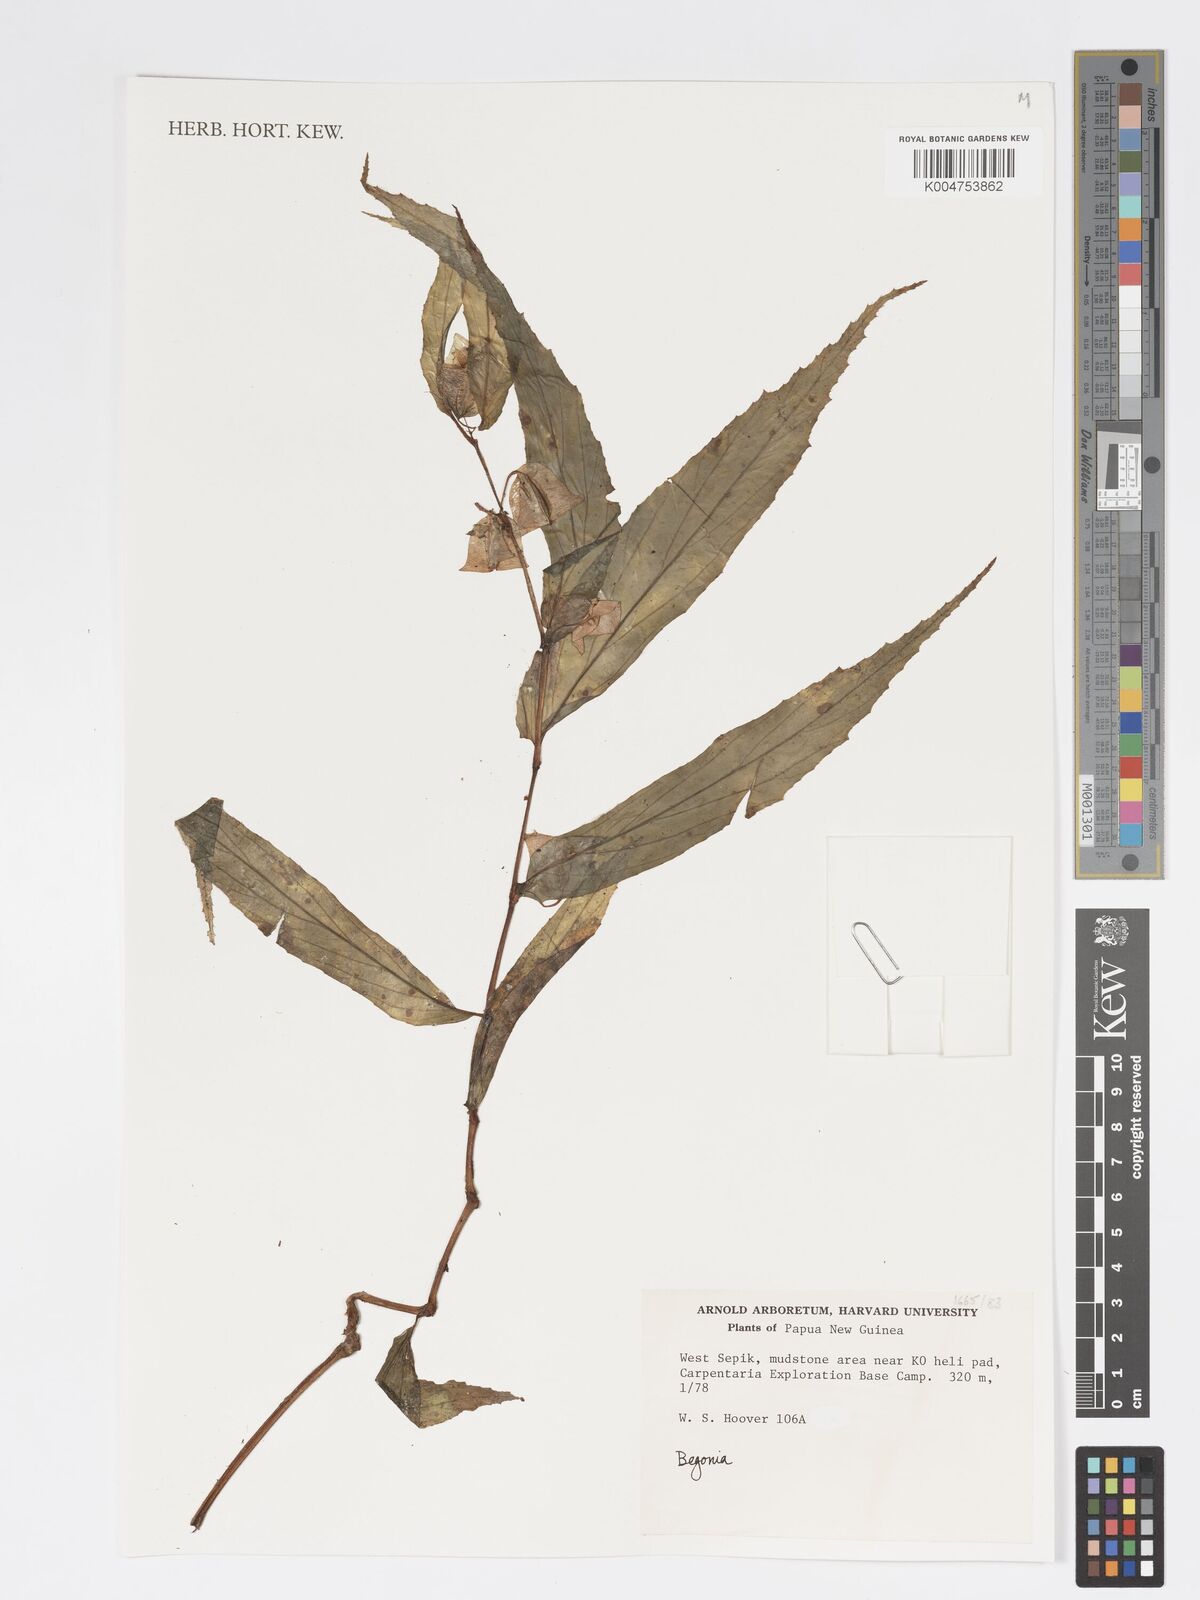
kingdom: Plantae
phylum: Tracheophyta
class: Magnoliopsida
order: Cucurbitales
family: Begoniaceae
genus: Begonia
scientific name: Begonia
